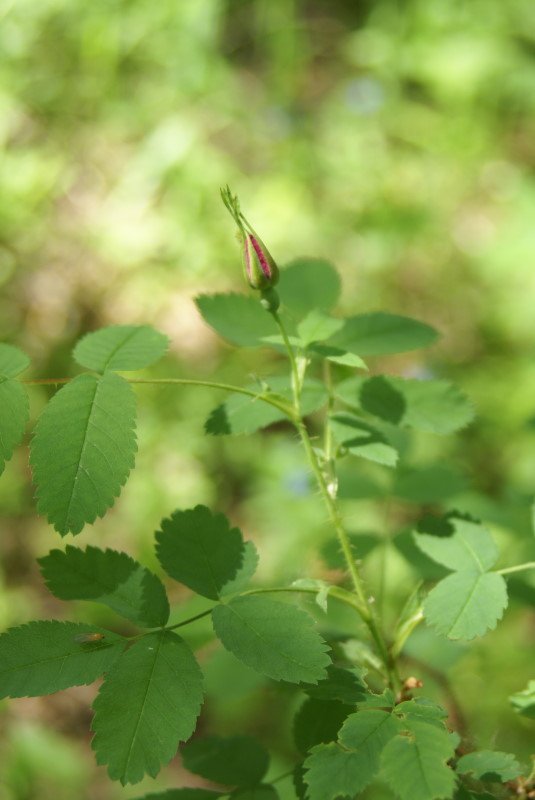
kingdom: Plantae
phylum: Tracheophyta
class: Magnoliopsida
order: Rosales
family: Rosaceae
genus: Rosa
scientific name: Rosa majalis
